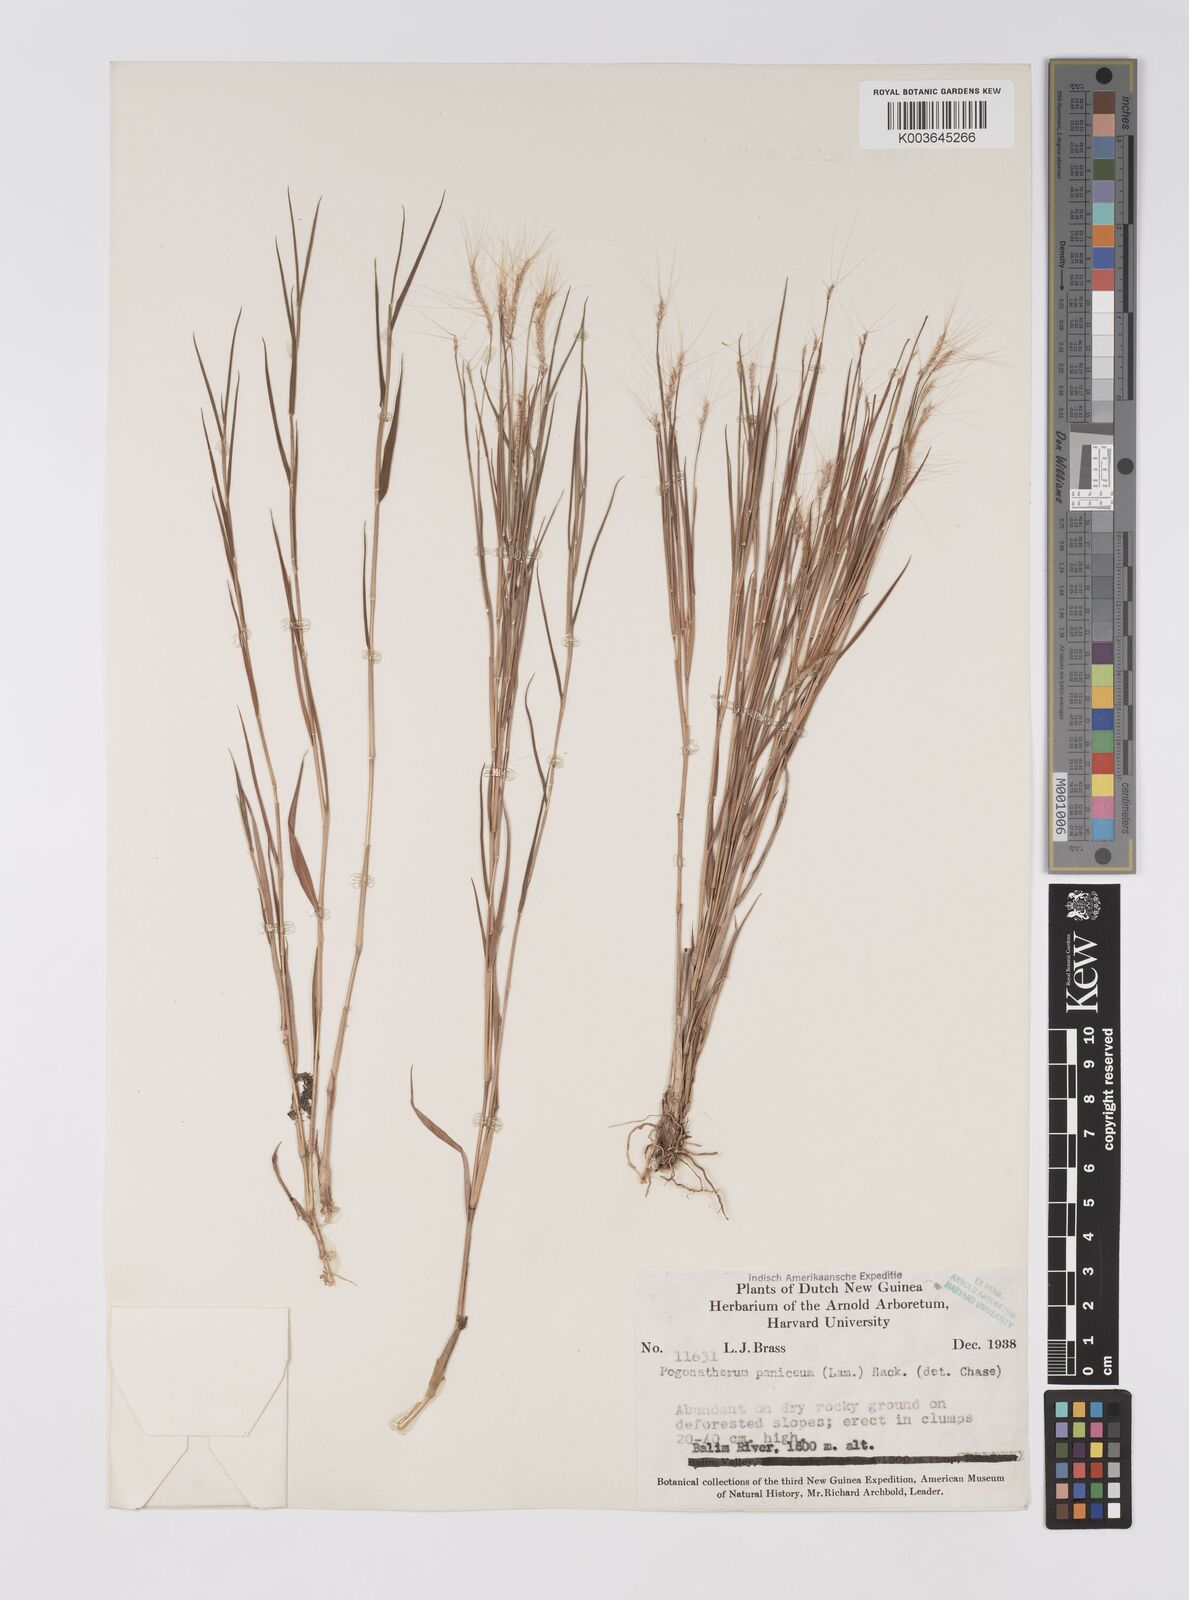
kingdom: Plantae
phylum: Tracheophyta
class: Liliopsida
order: Poales
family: Poaceae
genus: Pogonatherum
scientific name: Pogonatherum crinitum
